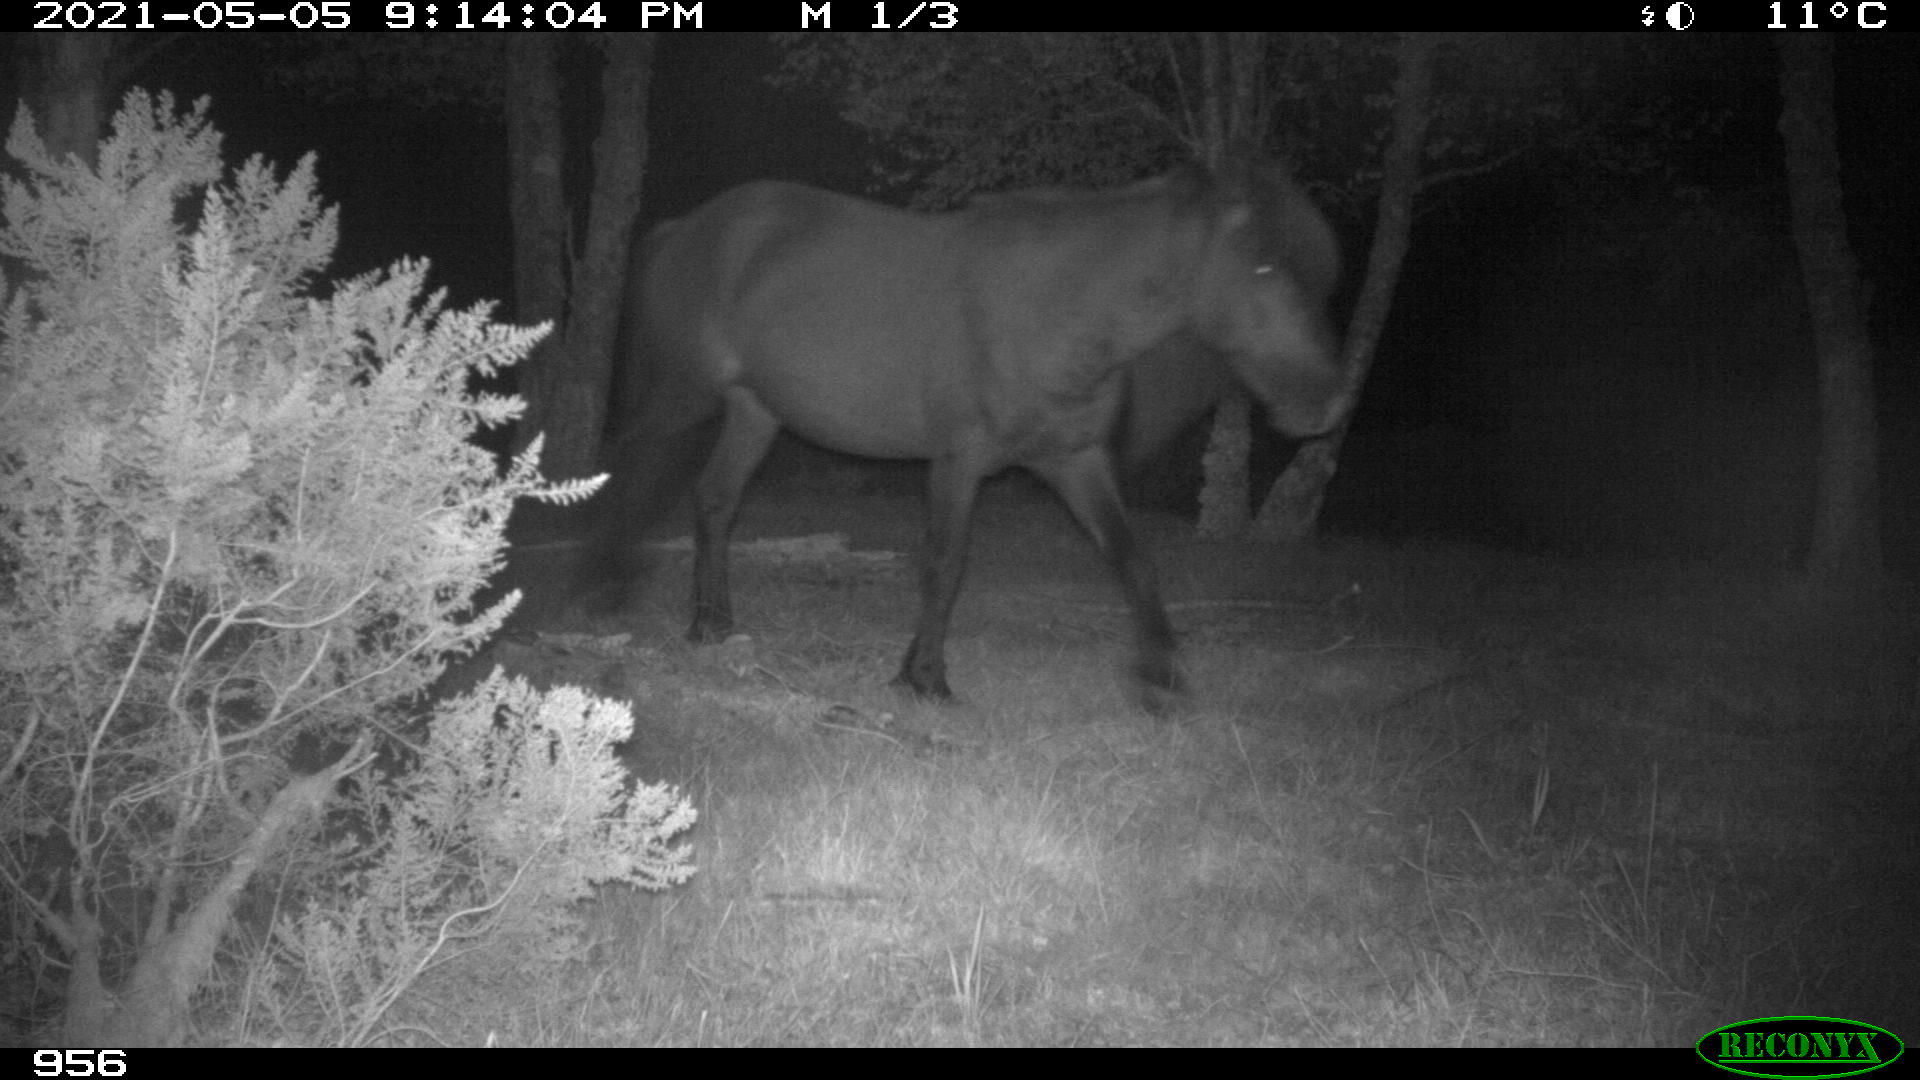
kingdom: Animalia
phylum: Chordata
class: Mammalia
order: Perissodactyla
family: Equidae
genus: Equus
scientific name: Equus caballus
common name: Horse
